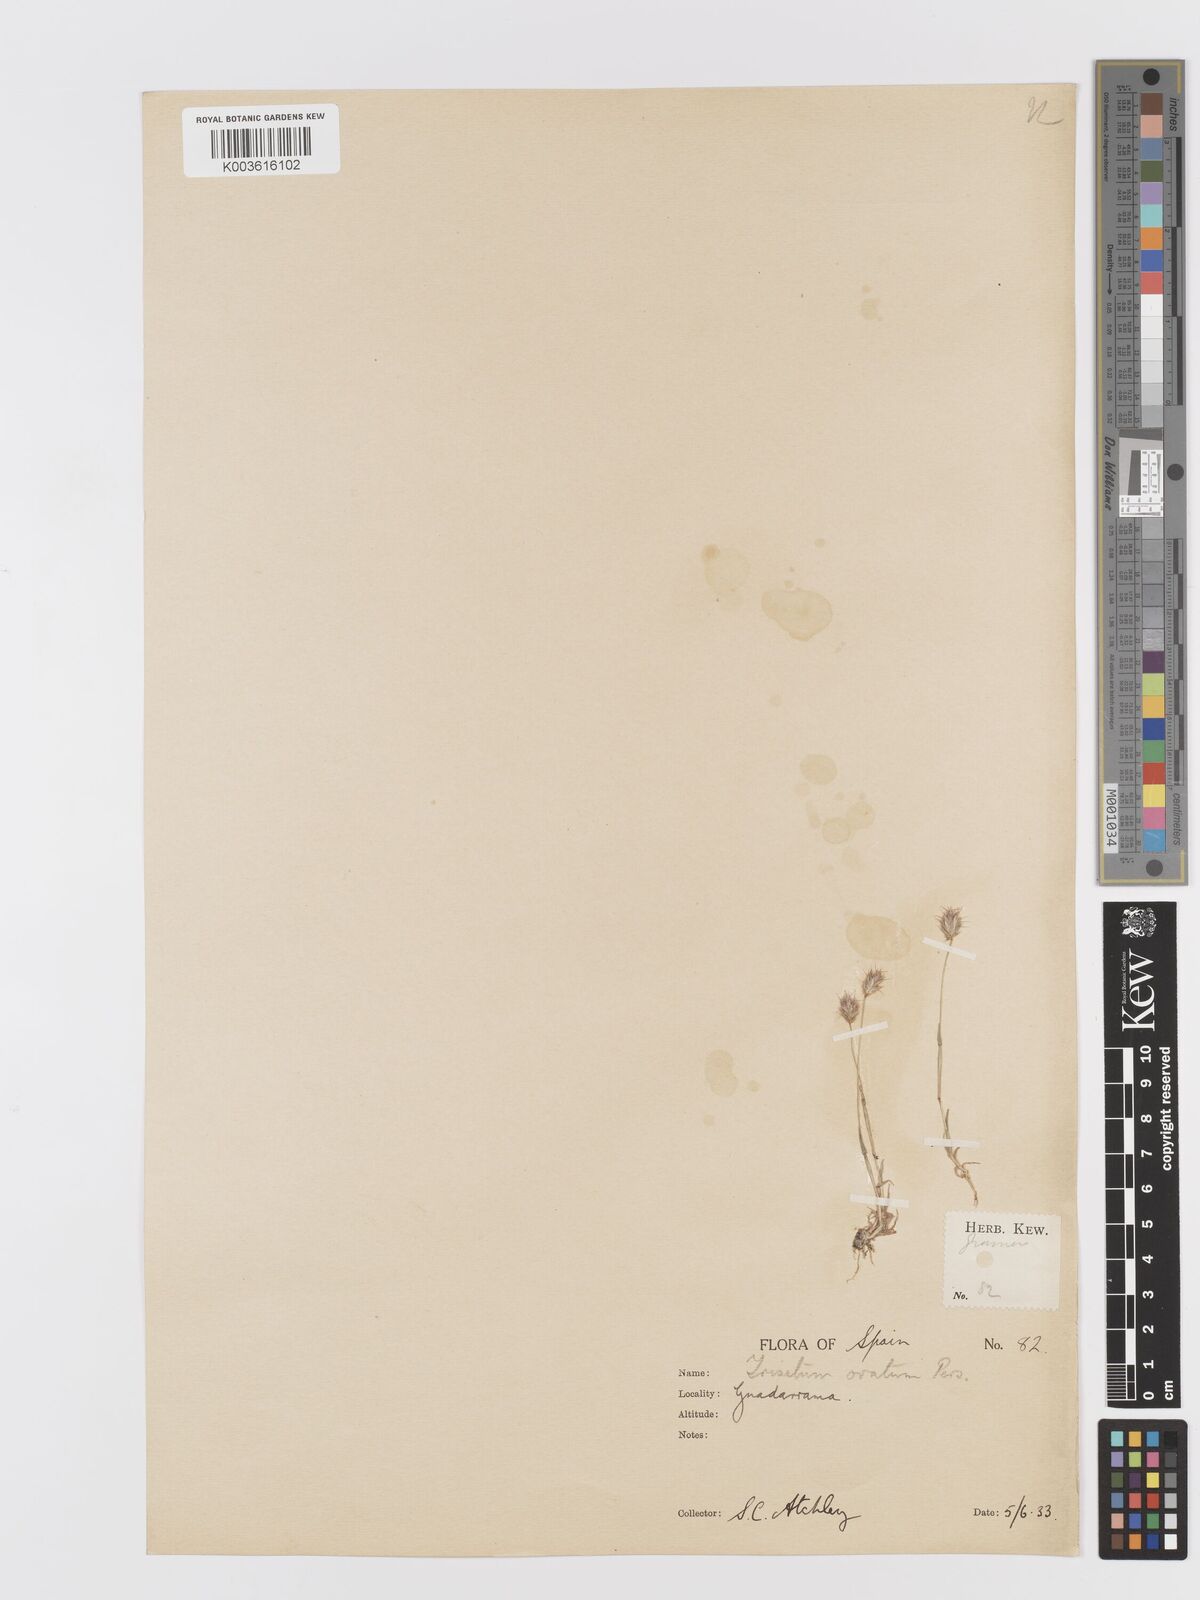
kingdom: Plantae
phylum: Tracheophyta
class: Liliopsida
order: Poales
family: Poaceae
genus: Trisetaria
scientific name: Trisetaria ovata
